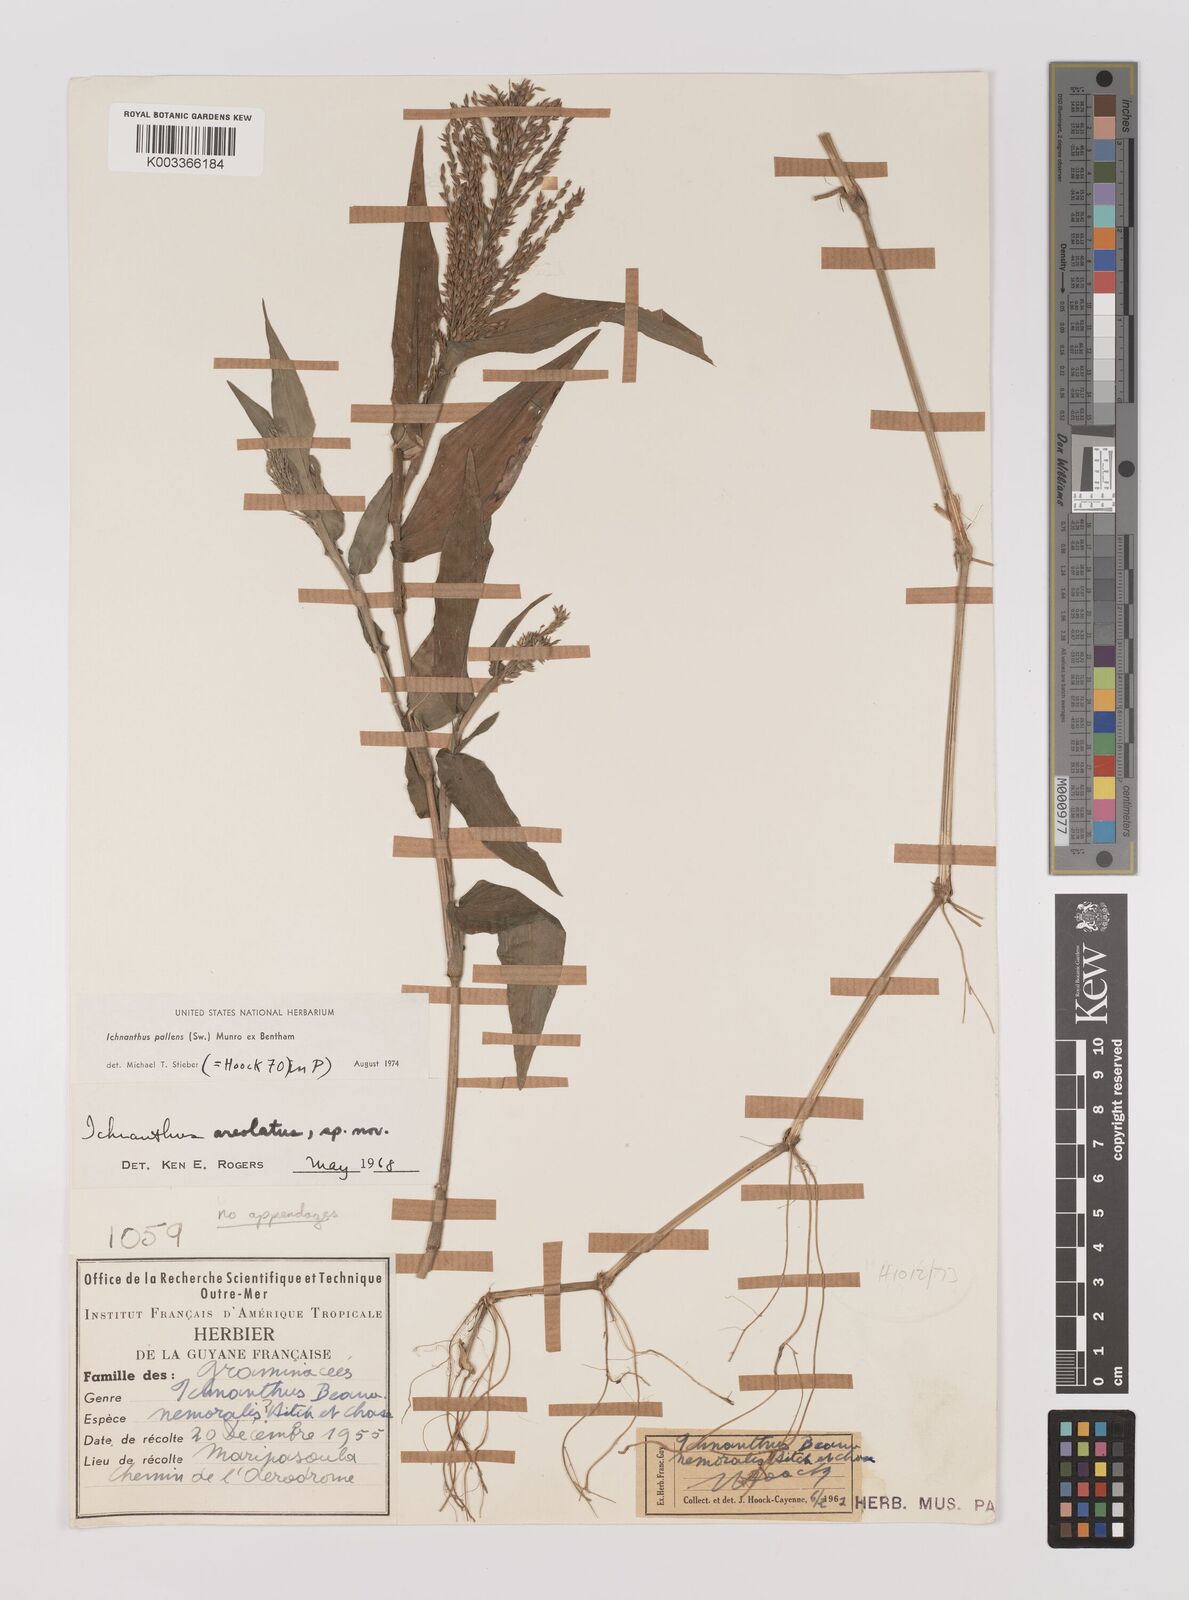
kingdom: Plantae
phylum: Tracheophyta
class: Liliopsida
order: Poales
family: Poaceae
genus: Ichnanthus
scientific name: Ichnanthus pallens
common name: Water grass
